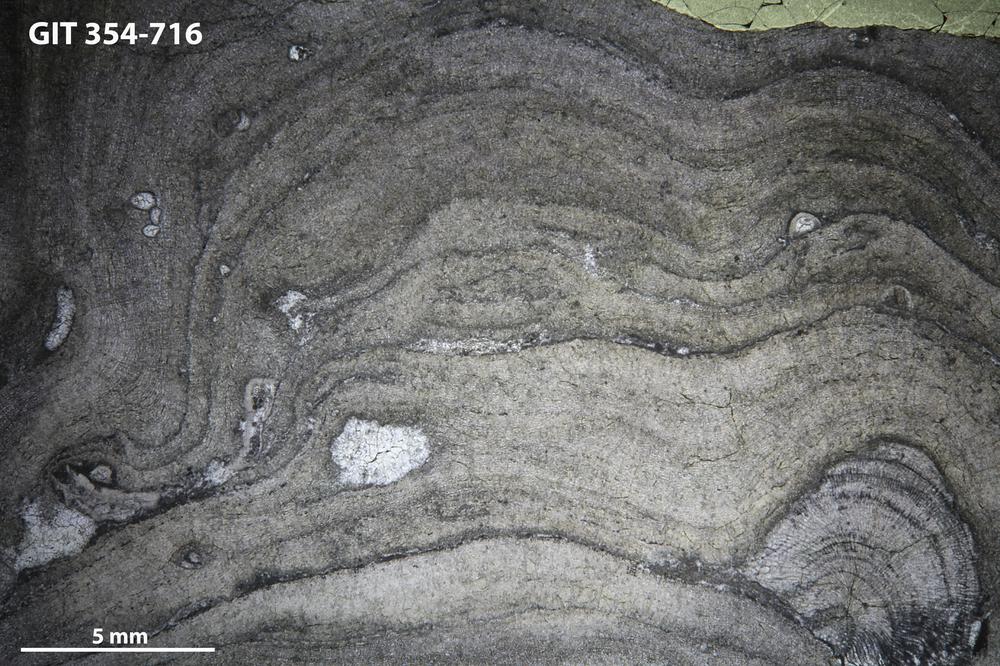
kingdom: Animalia
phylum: Porifera
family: Actinostromatidae
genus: Plectostroma
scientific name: Plectostroma
